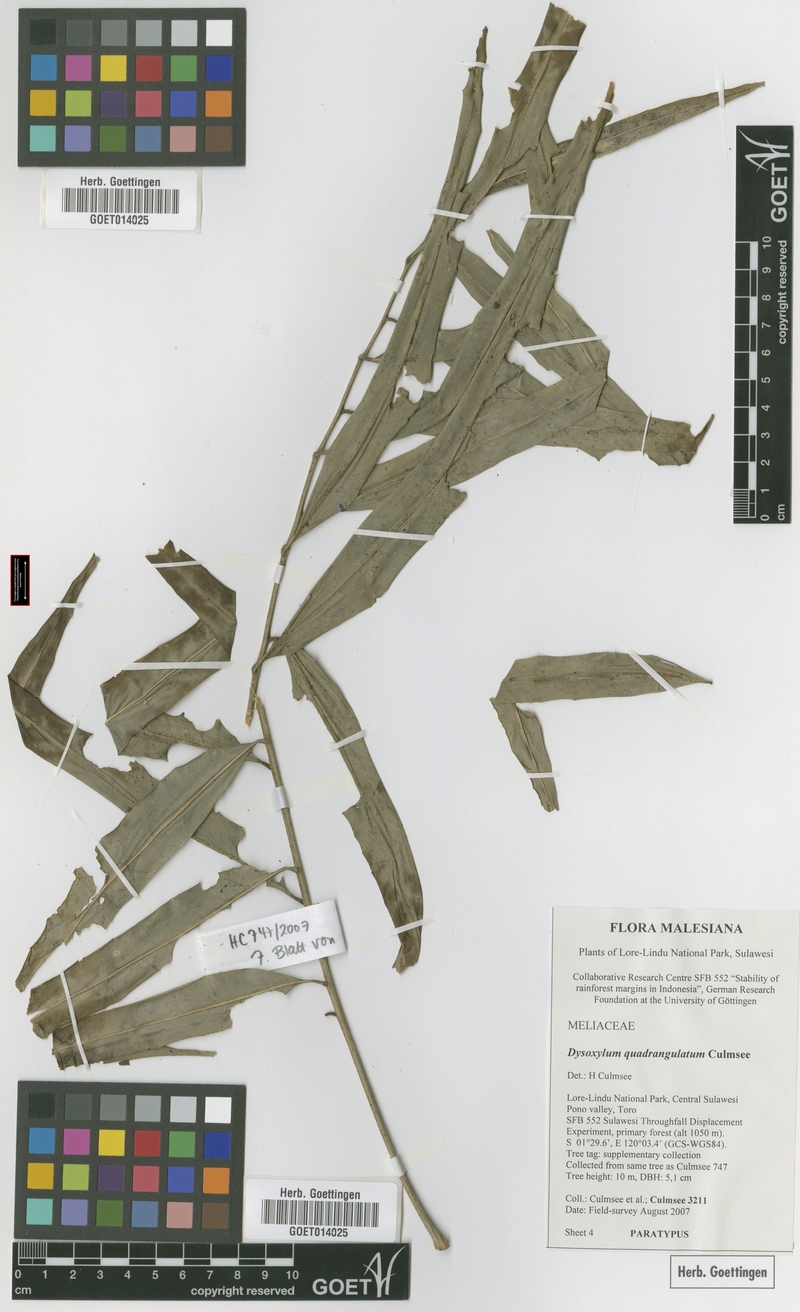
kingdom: Plantae
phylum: Tracheophyta
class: Magnoliopsida
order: Sapindales
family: Meliaceae
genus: Dysoxylum
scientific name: Dysoxylum quadrangulatum
